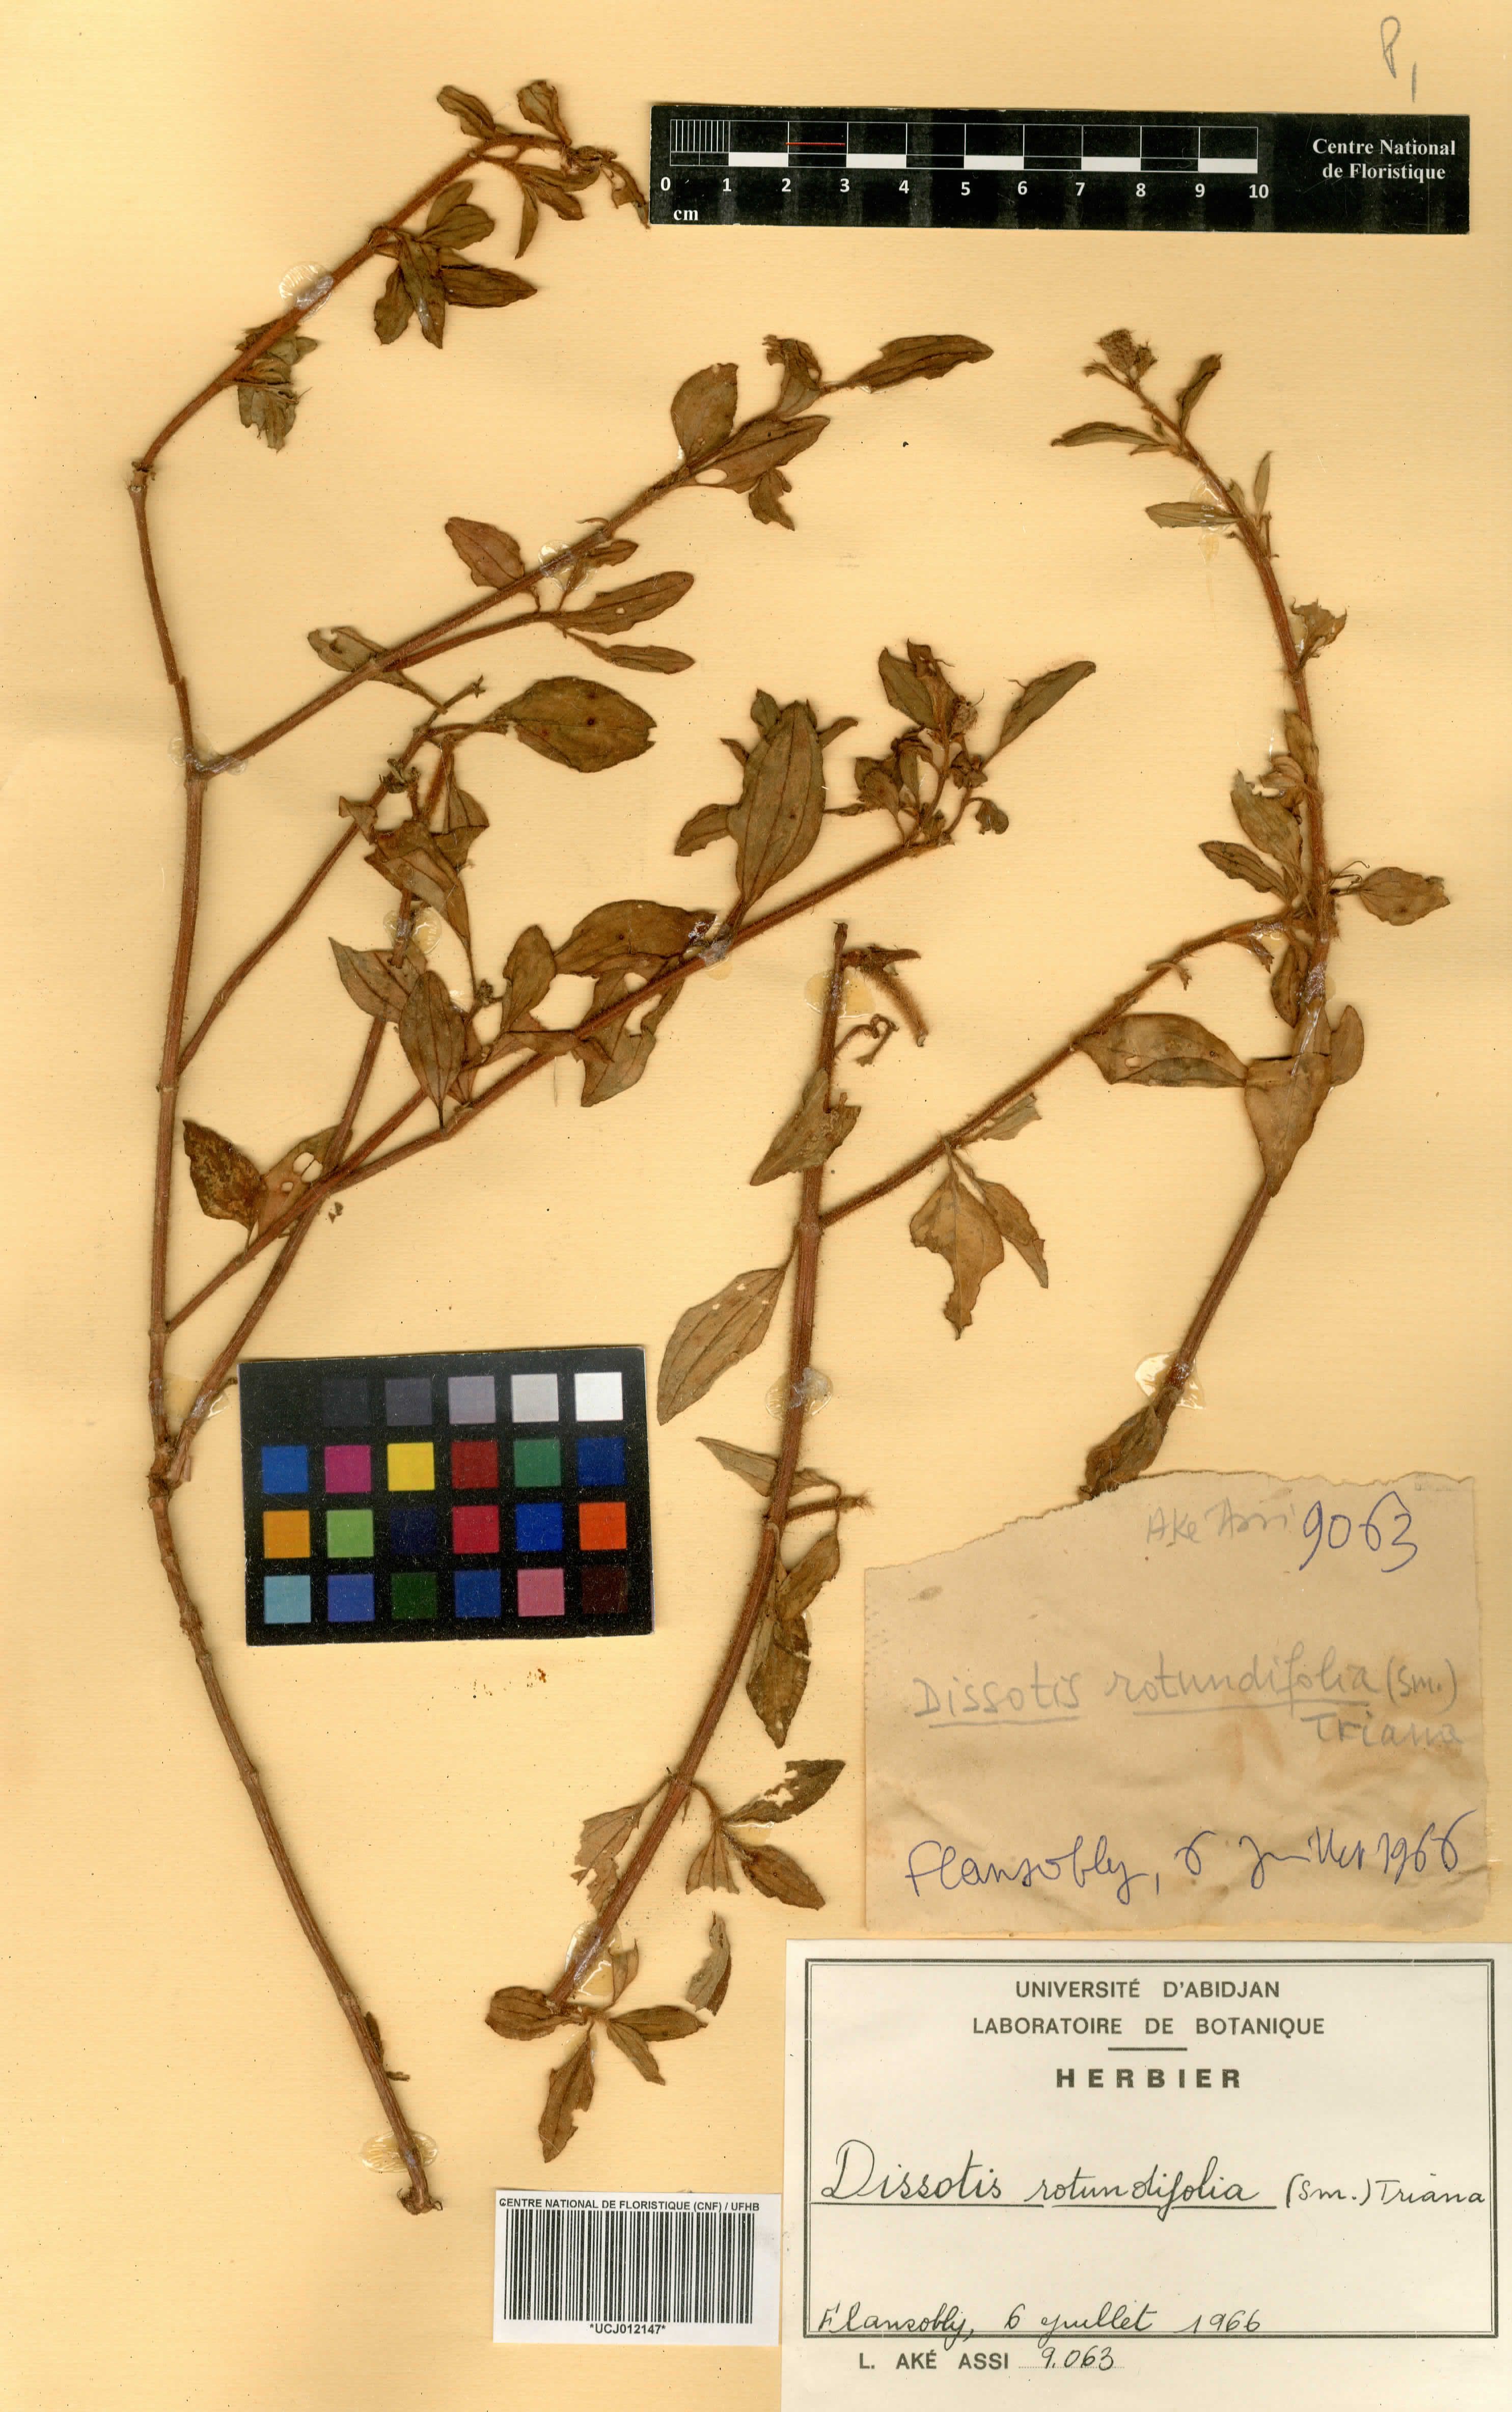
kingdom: Plantae
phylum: Tracheophyta
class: Magnoliopsida
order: Myrtales
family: Melastomataceae
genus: Heterotis
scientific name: Heterotis rotundifolia
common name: Pinklady
